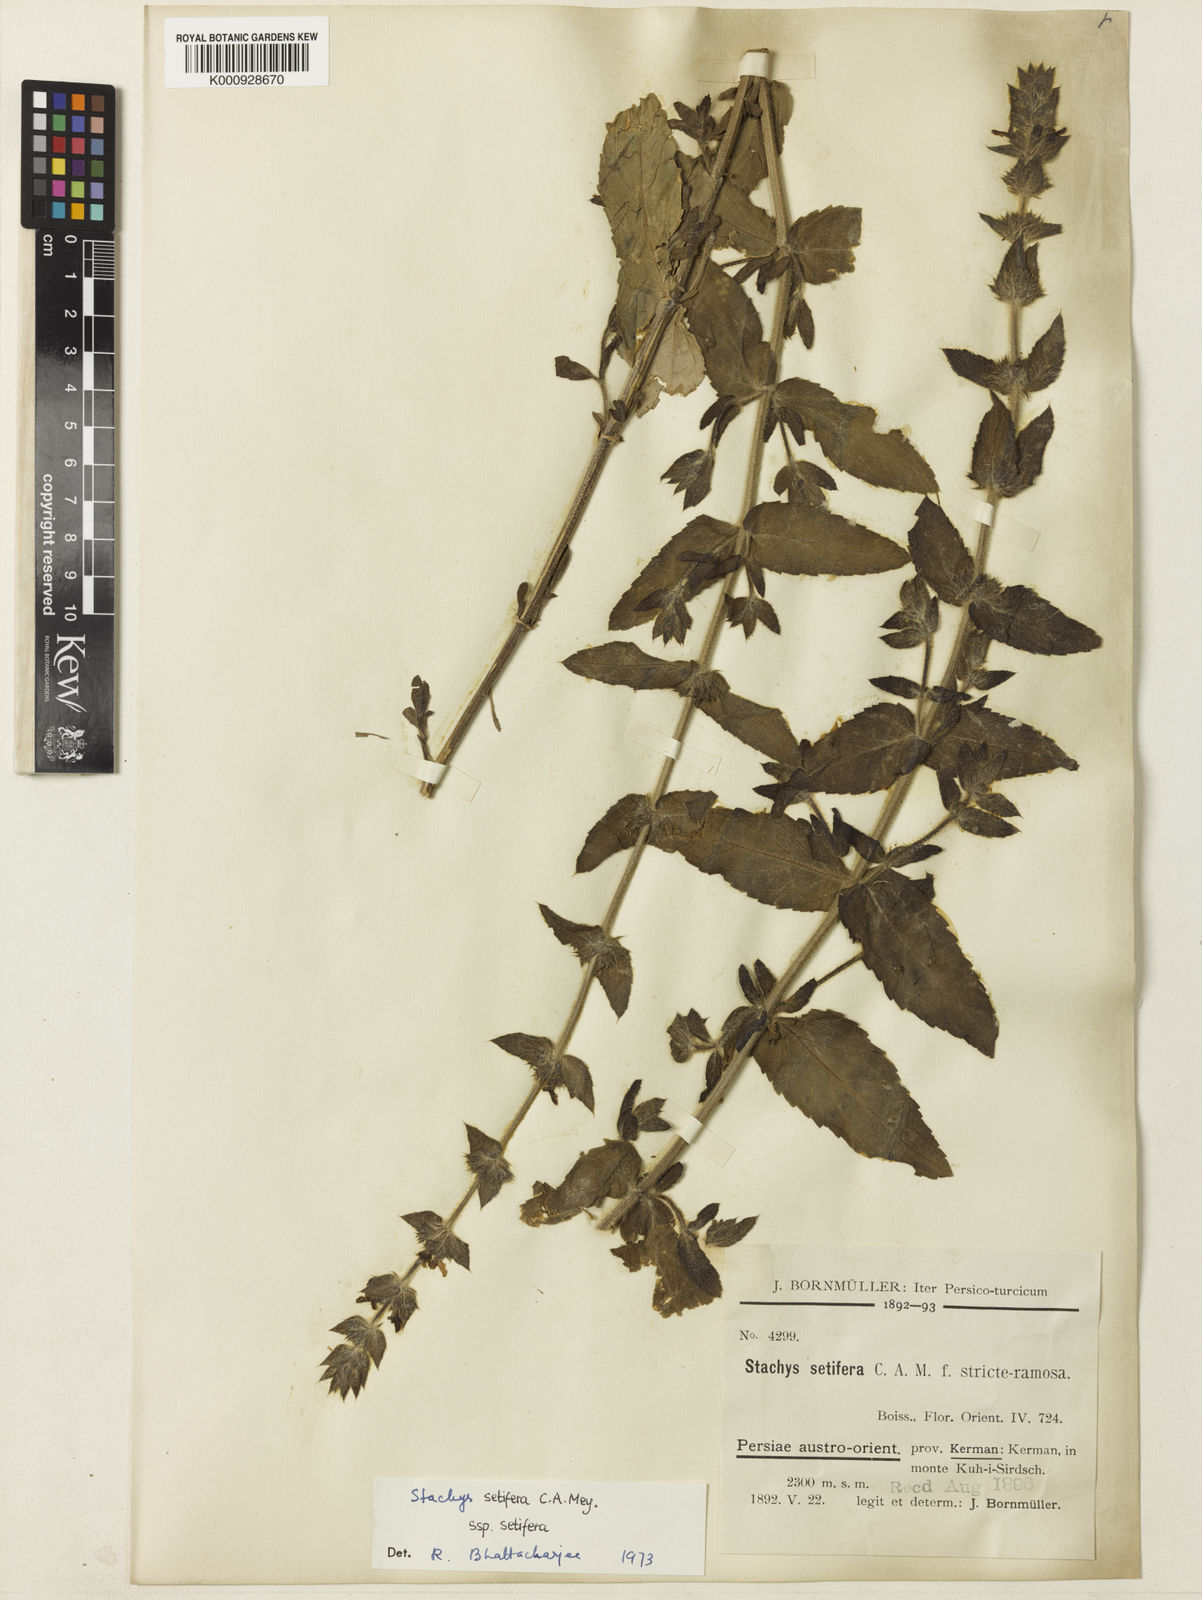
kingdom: Plantae
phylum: Tracheophyta
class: Magnoliopsida
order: Lamiales
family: Lamiaceae
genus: Stachys
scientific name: Stachys setifera
